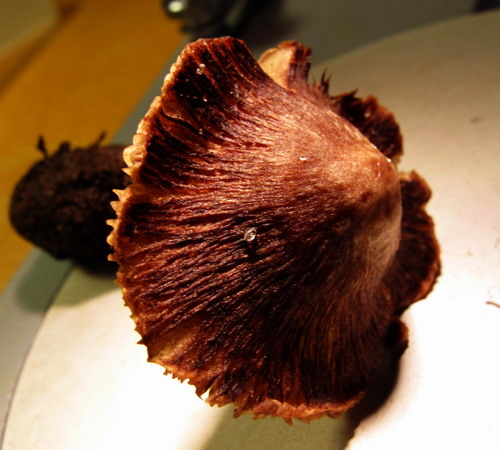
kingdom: Fungi
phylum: Basidiomycota
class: Agaricomycetes
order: Agaricales
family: Inocybaceae
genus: Inosperma
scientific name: Inosperma adaequatum
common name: vinrød trævlhat
